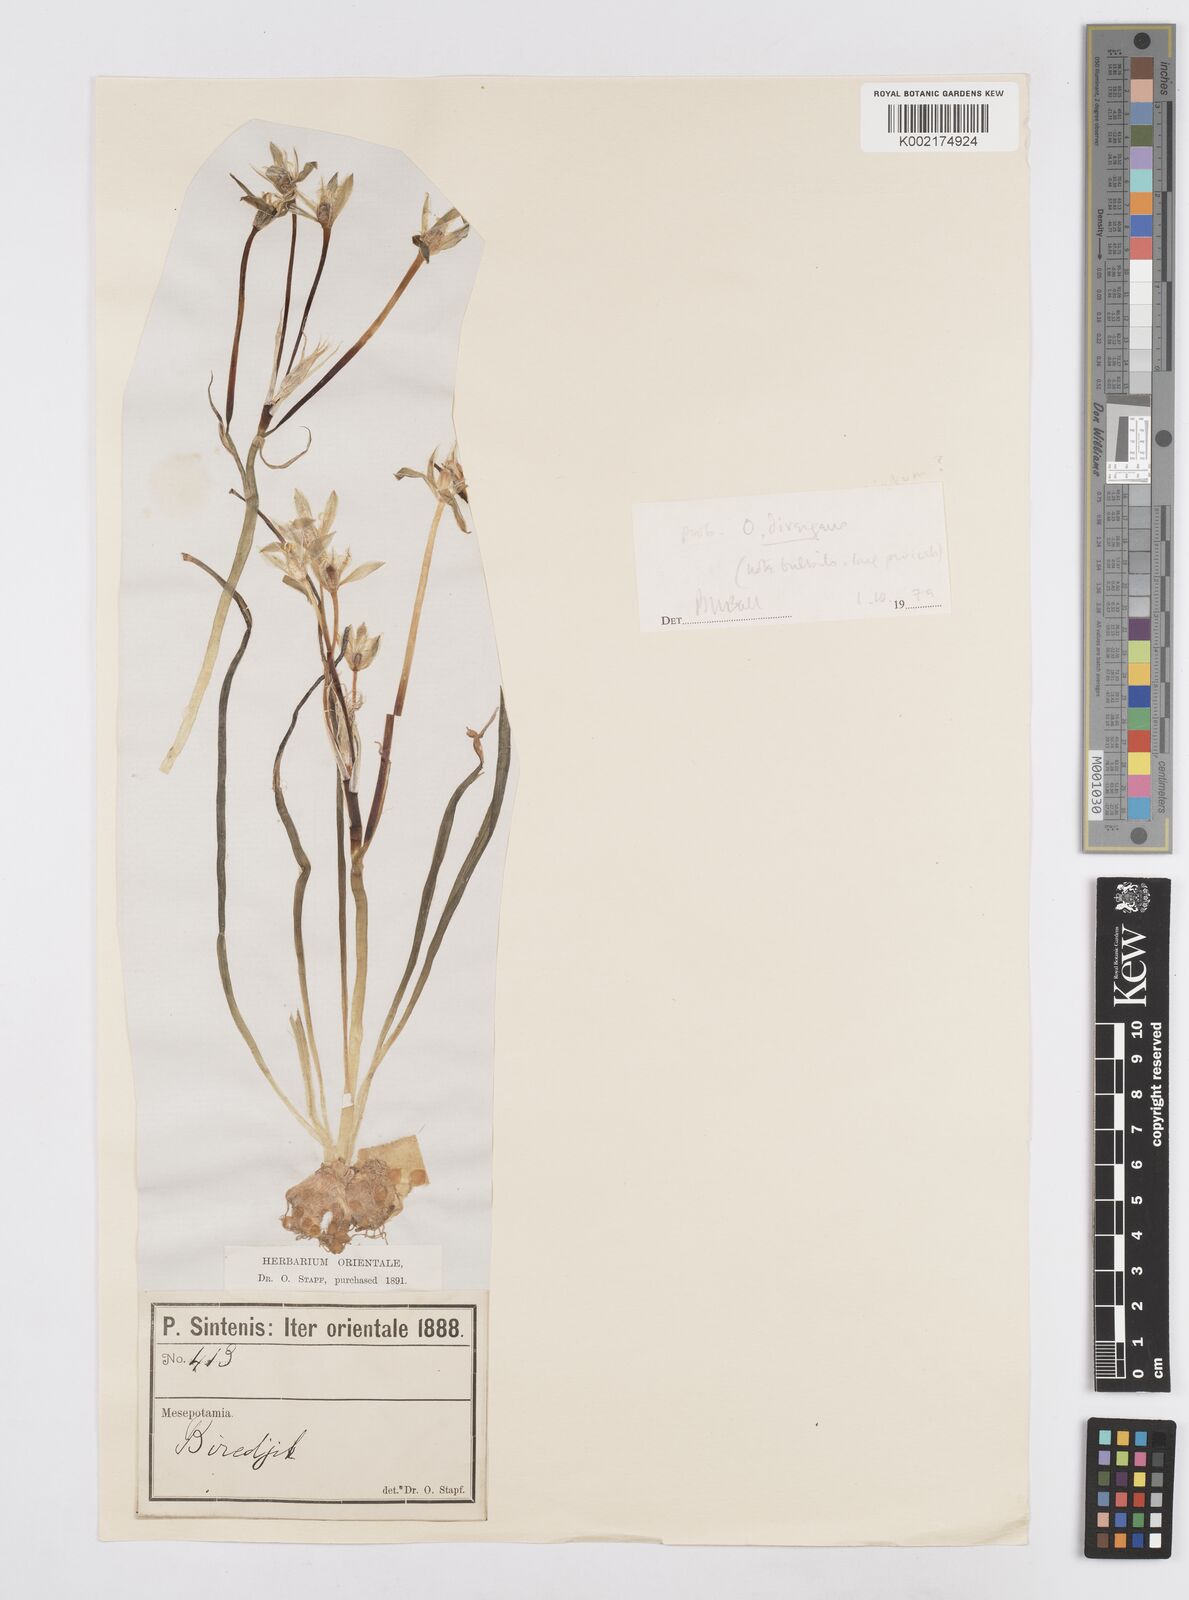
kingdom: Plantae
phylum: Tracheophyta
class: Liliopsida
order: Asparagales
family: Asparagaceae
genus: Ornithogalum
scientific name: Ornithogalum umbellatum
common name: Garden star-of-bethlehem
